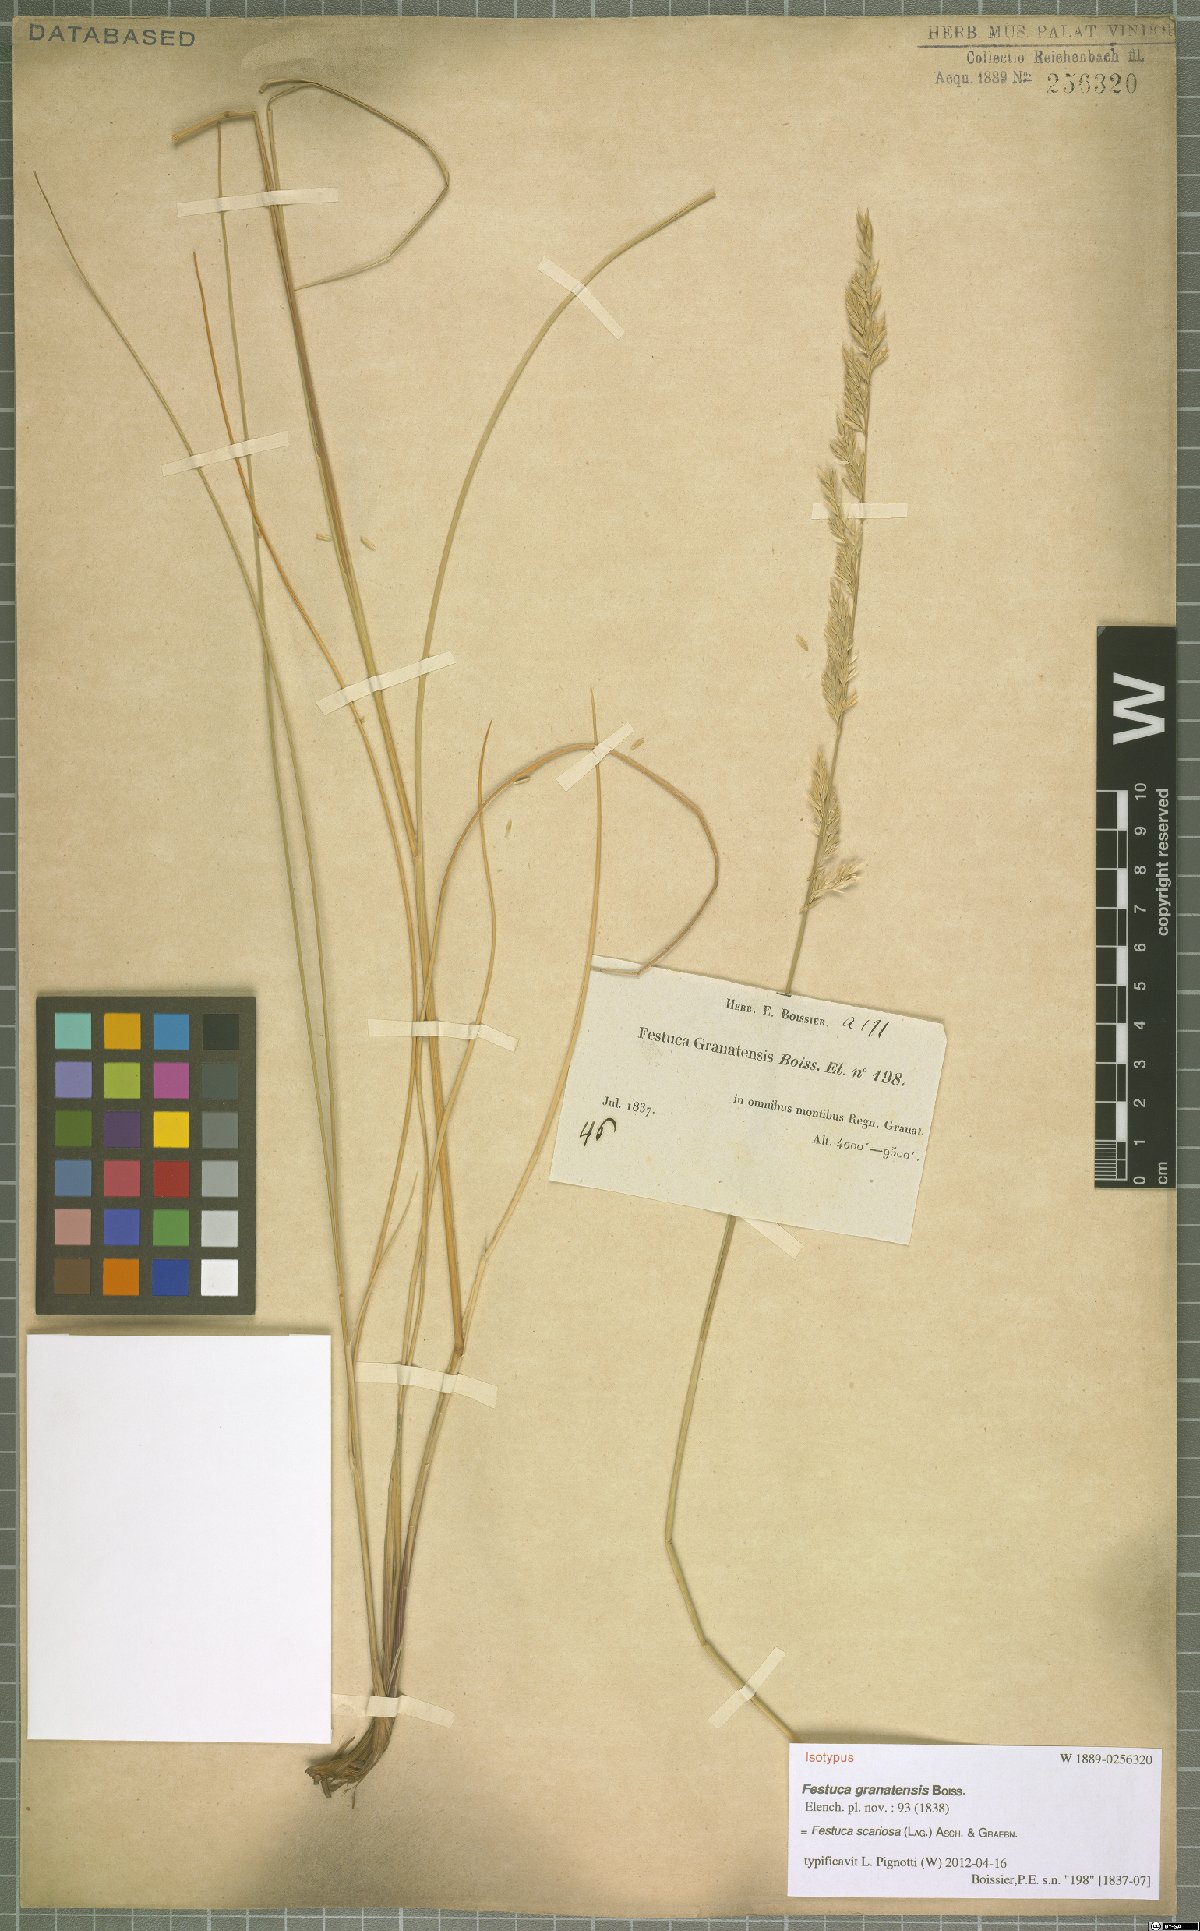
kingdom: Plantae
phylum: Tracheophyta
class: Liliopsida
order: Poales
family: Poaceae
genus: Festuca
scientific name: Festuca scariosa
